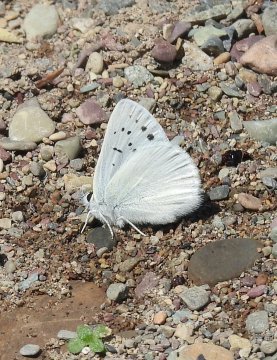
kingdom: Animalia
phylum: Arthropoda
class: Insecta
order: Lepidoptera
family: Lycaenidae
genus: Lycaena
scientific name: Lycaena heteronea
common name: Blue Copper
